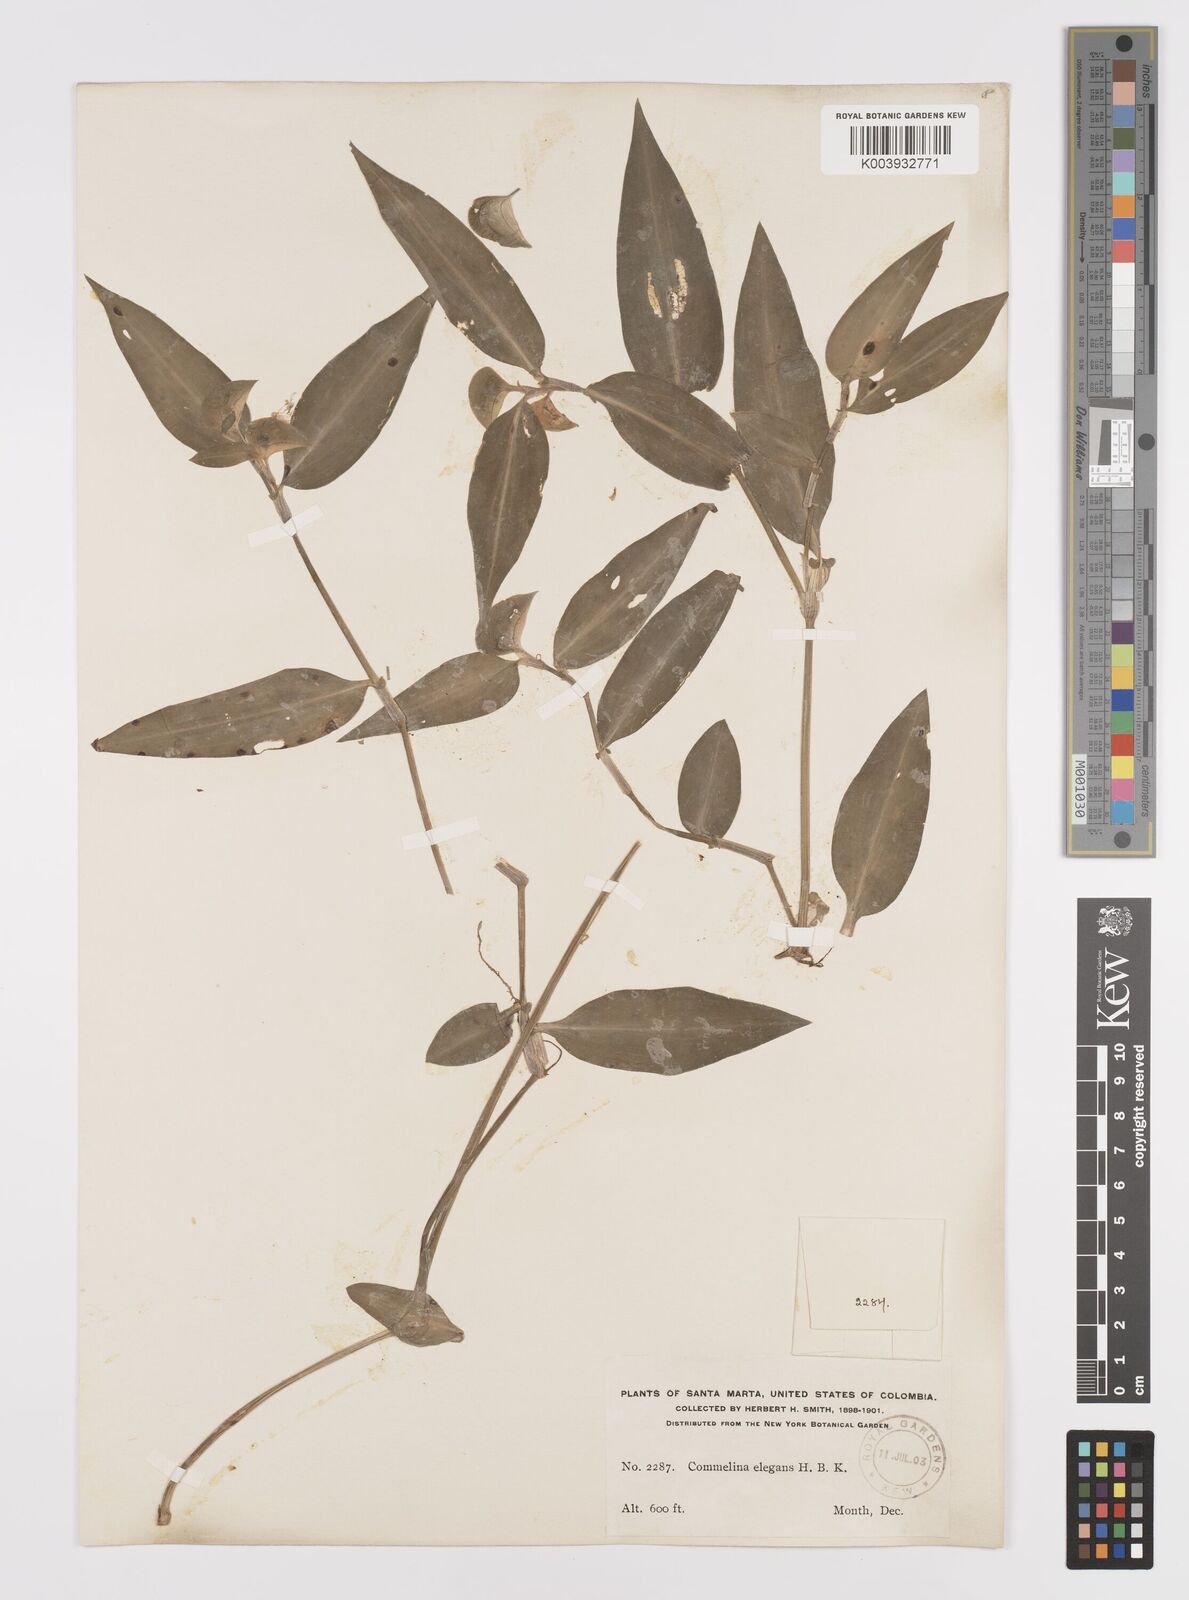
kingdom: Plantae
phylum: Tracheophyta
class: Liliopsida
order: Commelinales
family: Commelinaceae
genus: Commelina
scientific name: Commelina virginica
